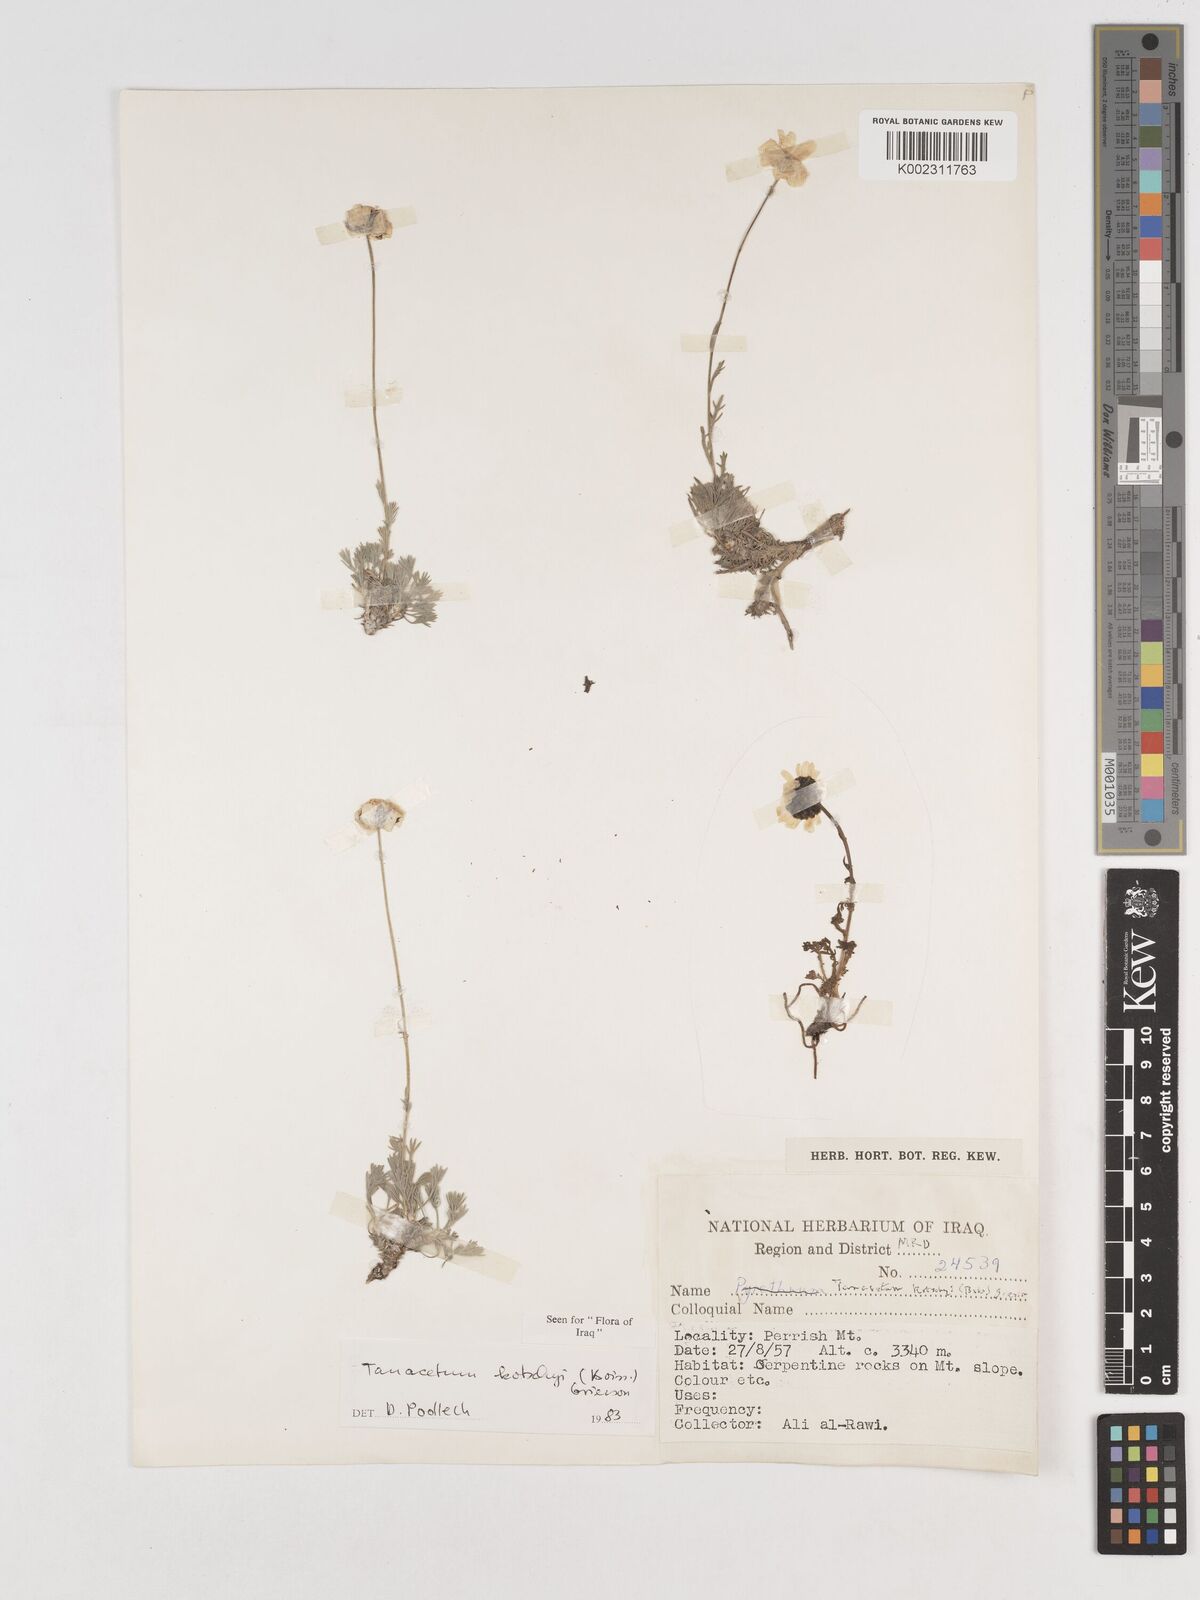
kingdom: Plantae
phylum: Tracheophyta
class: Magnoliopsida
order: Asterales
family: Asteraceae
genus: Tanacetum
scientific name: Tanacetum polycephalum
